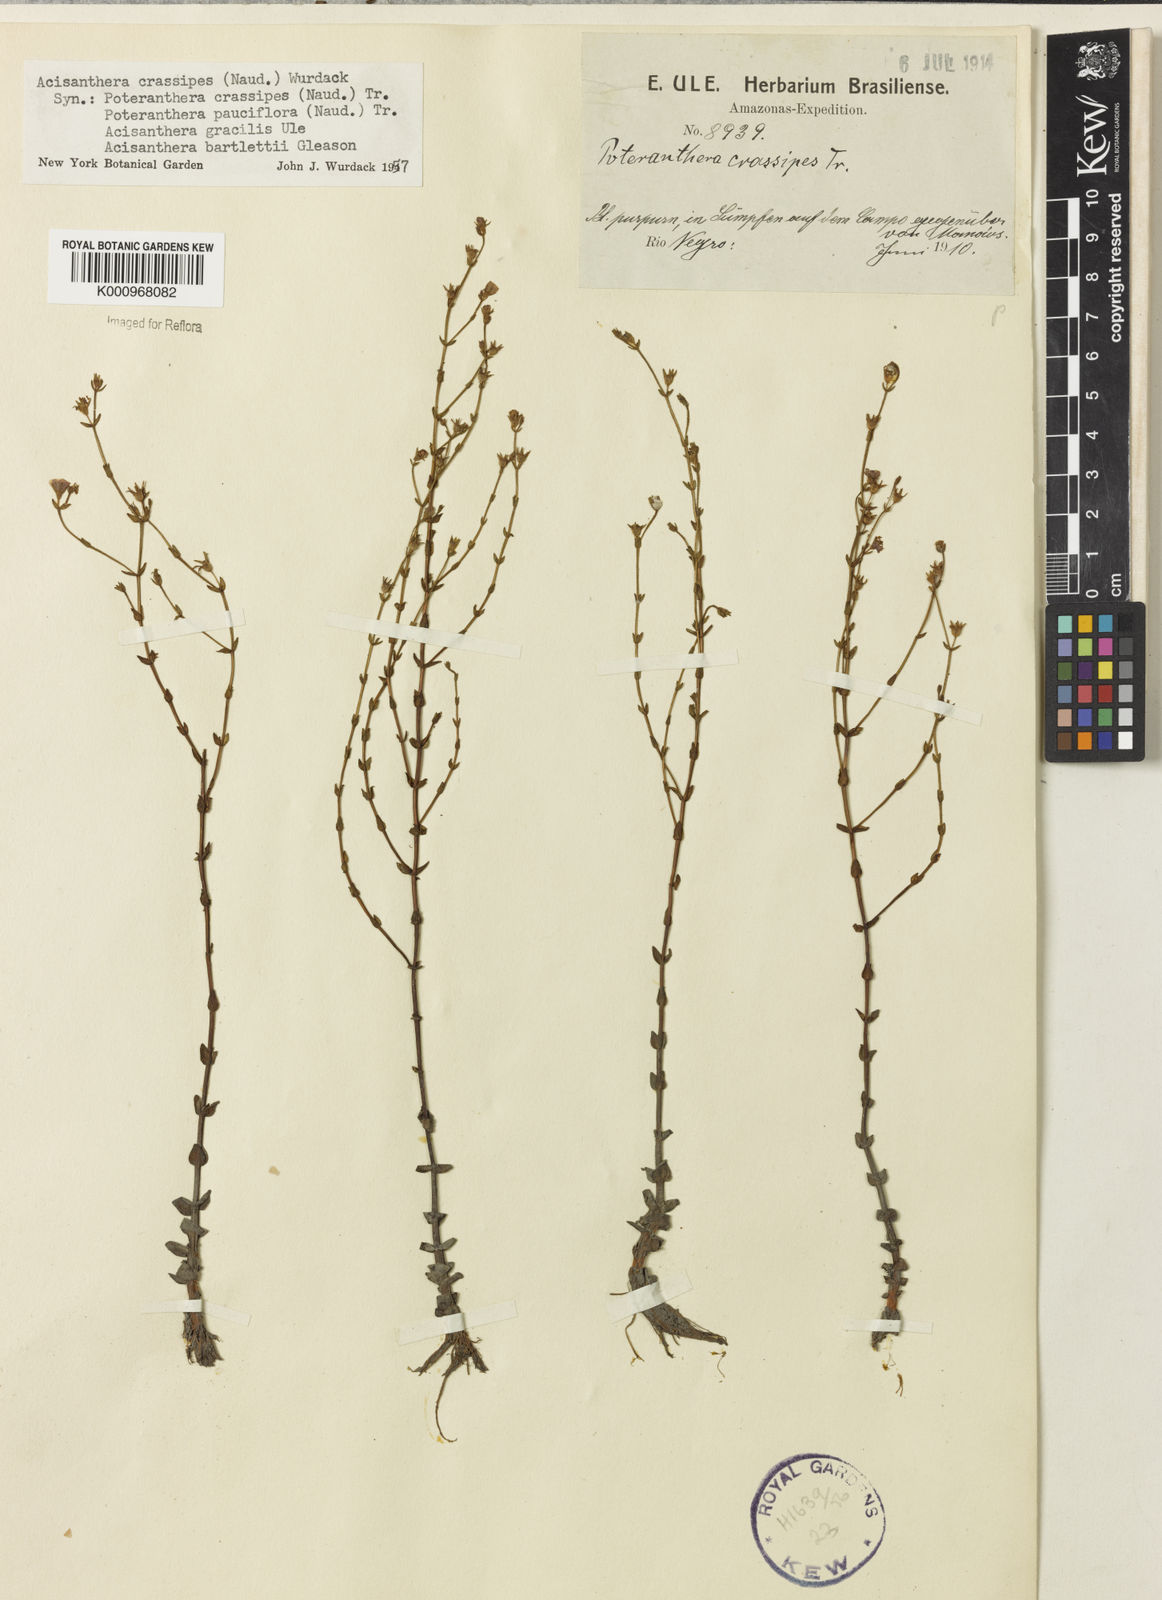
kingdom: Plantae
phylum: Tracheophyta
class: Magnoliopsida
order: Myrtales
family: Melastomataceae
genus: Noterophila
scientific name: Noterophila crassipes
